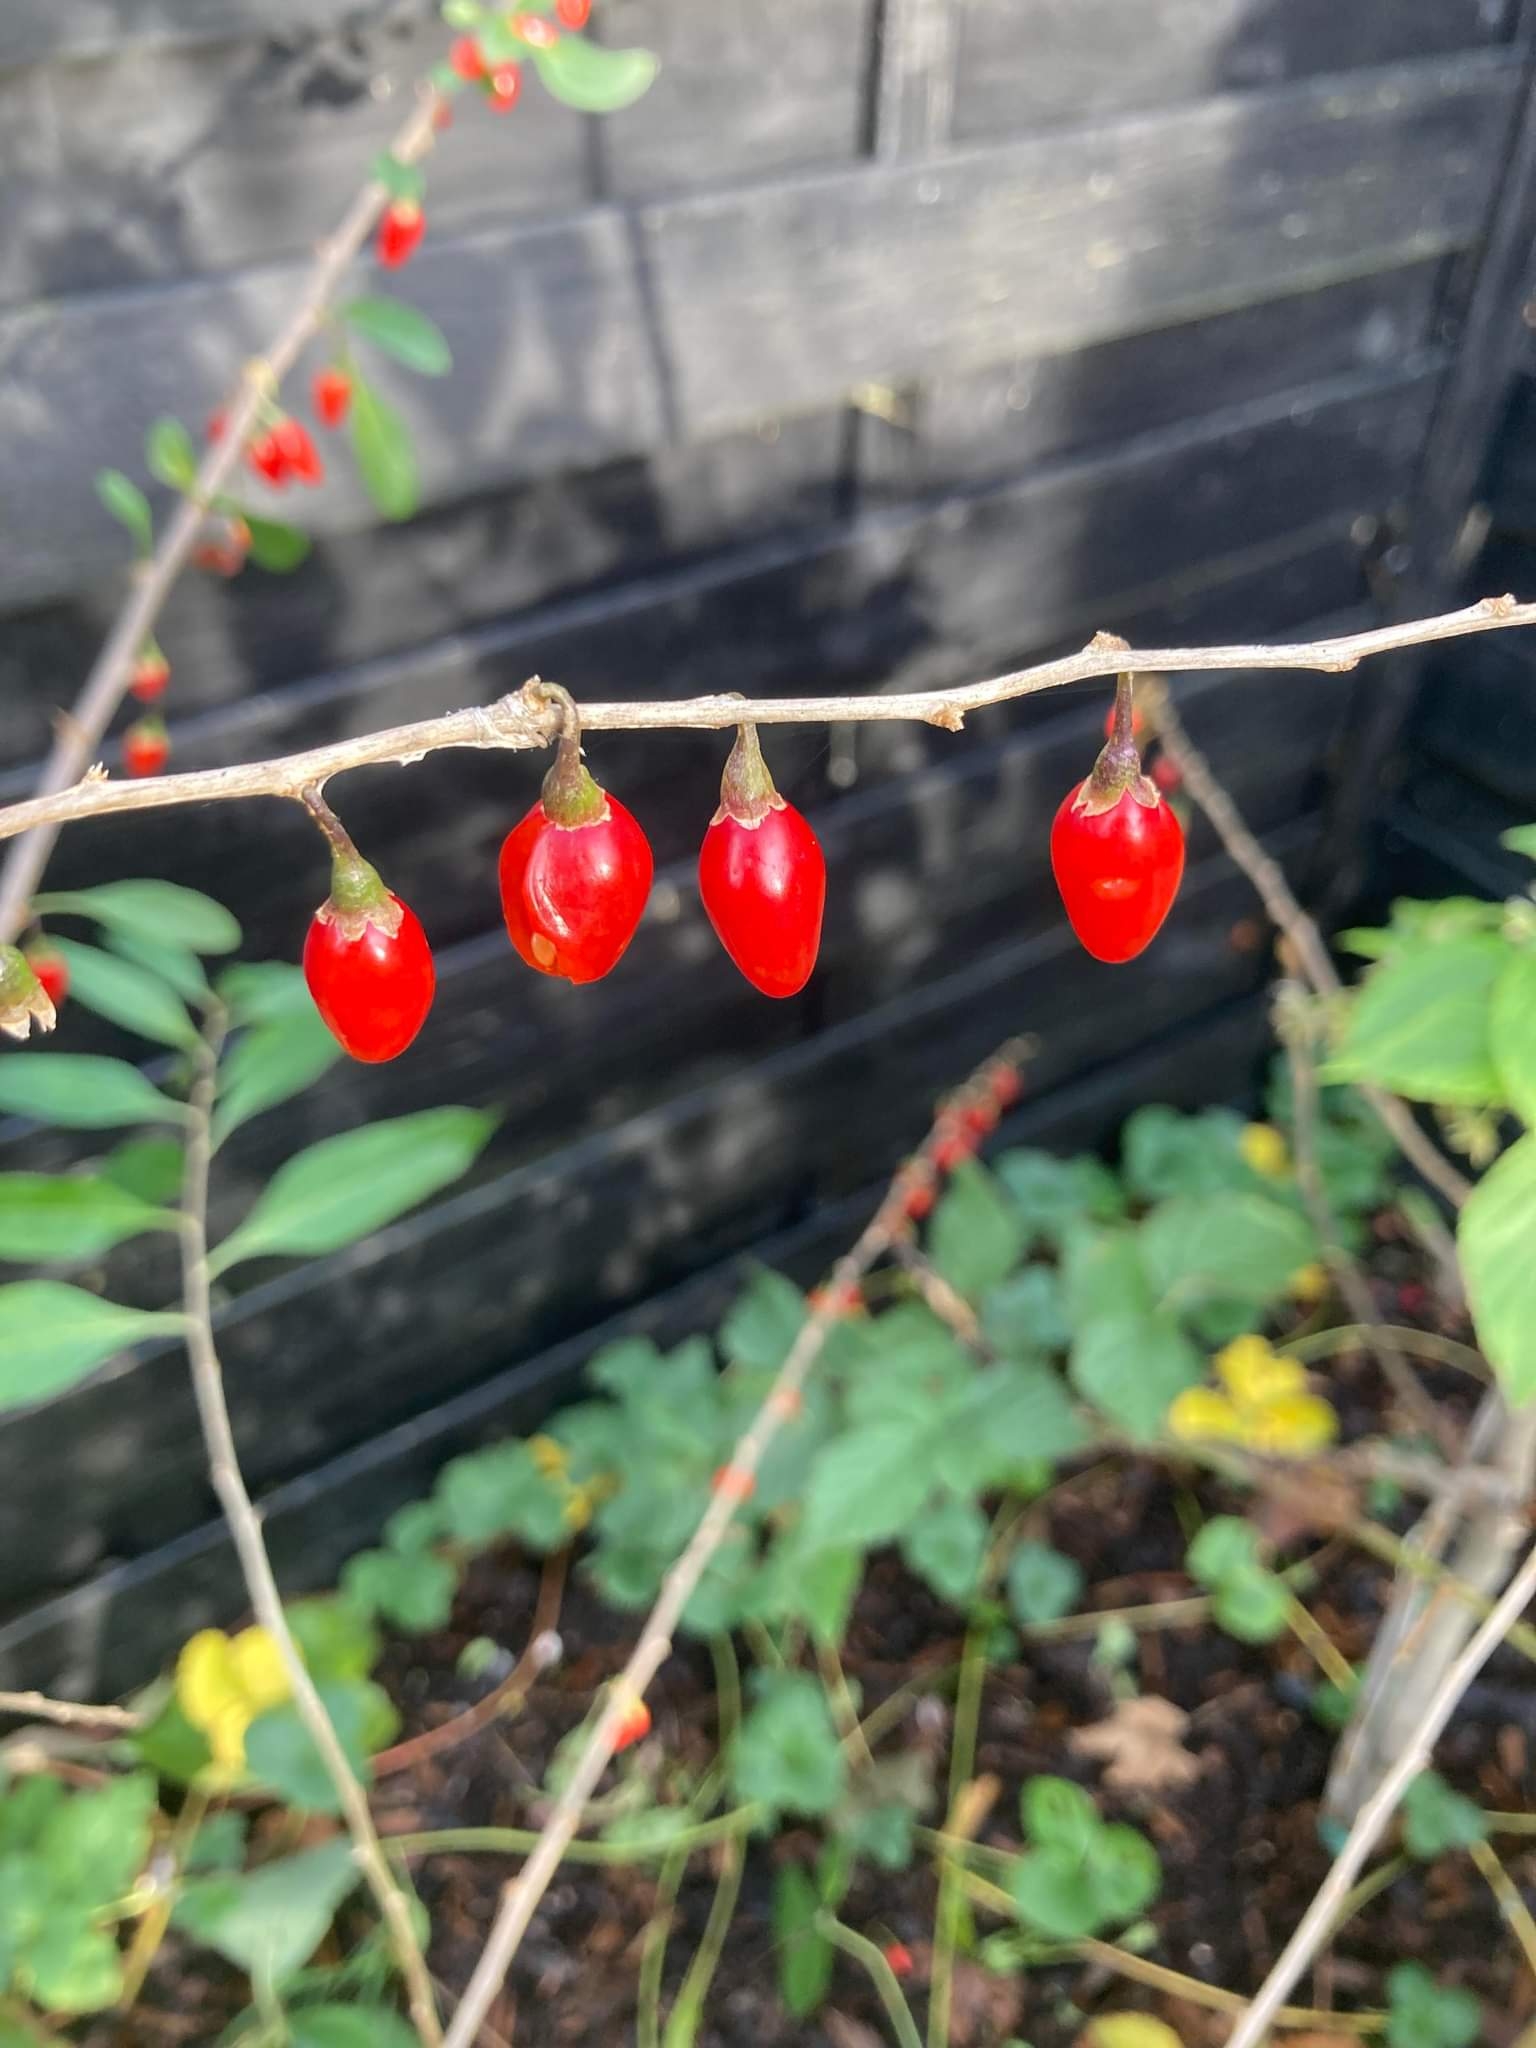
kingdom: Plantae
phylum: Tracheophyta
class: Magnoliopsida
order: Solanales
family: Solanaceae
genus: Lycium
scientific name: Lycium barbarum
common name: Bukketorn
